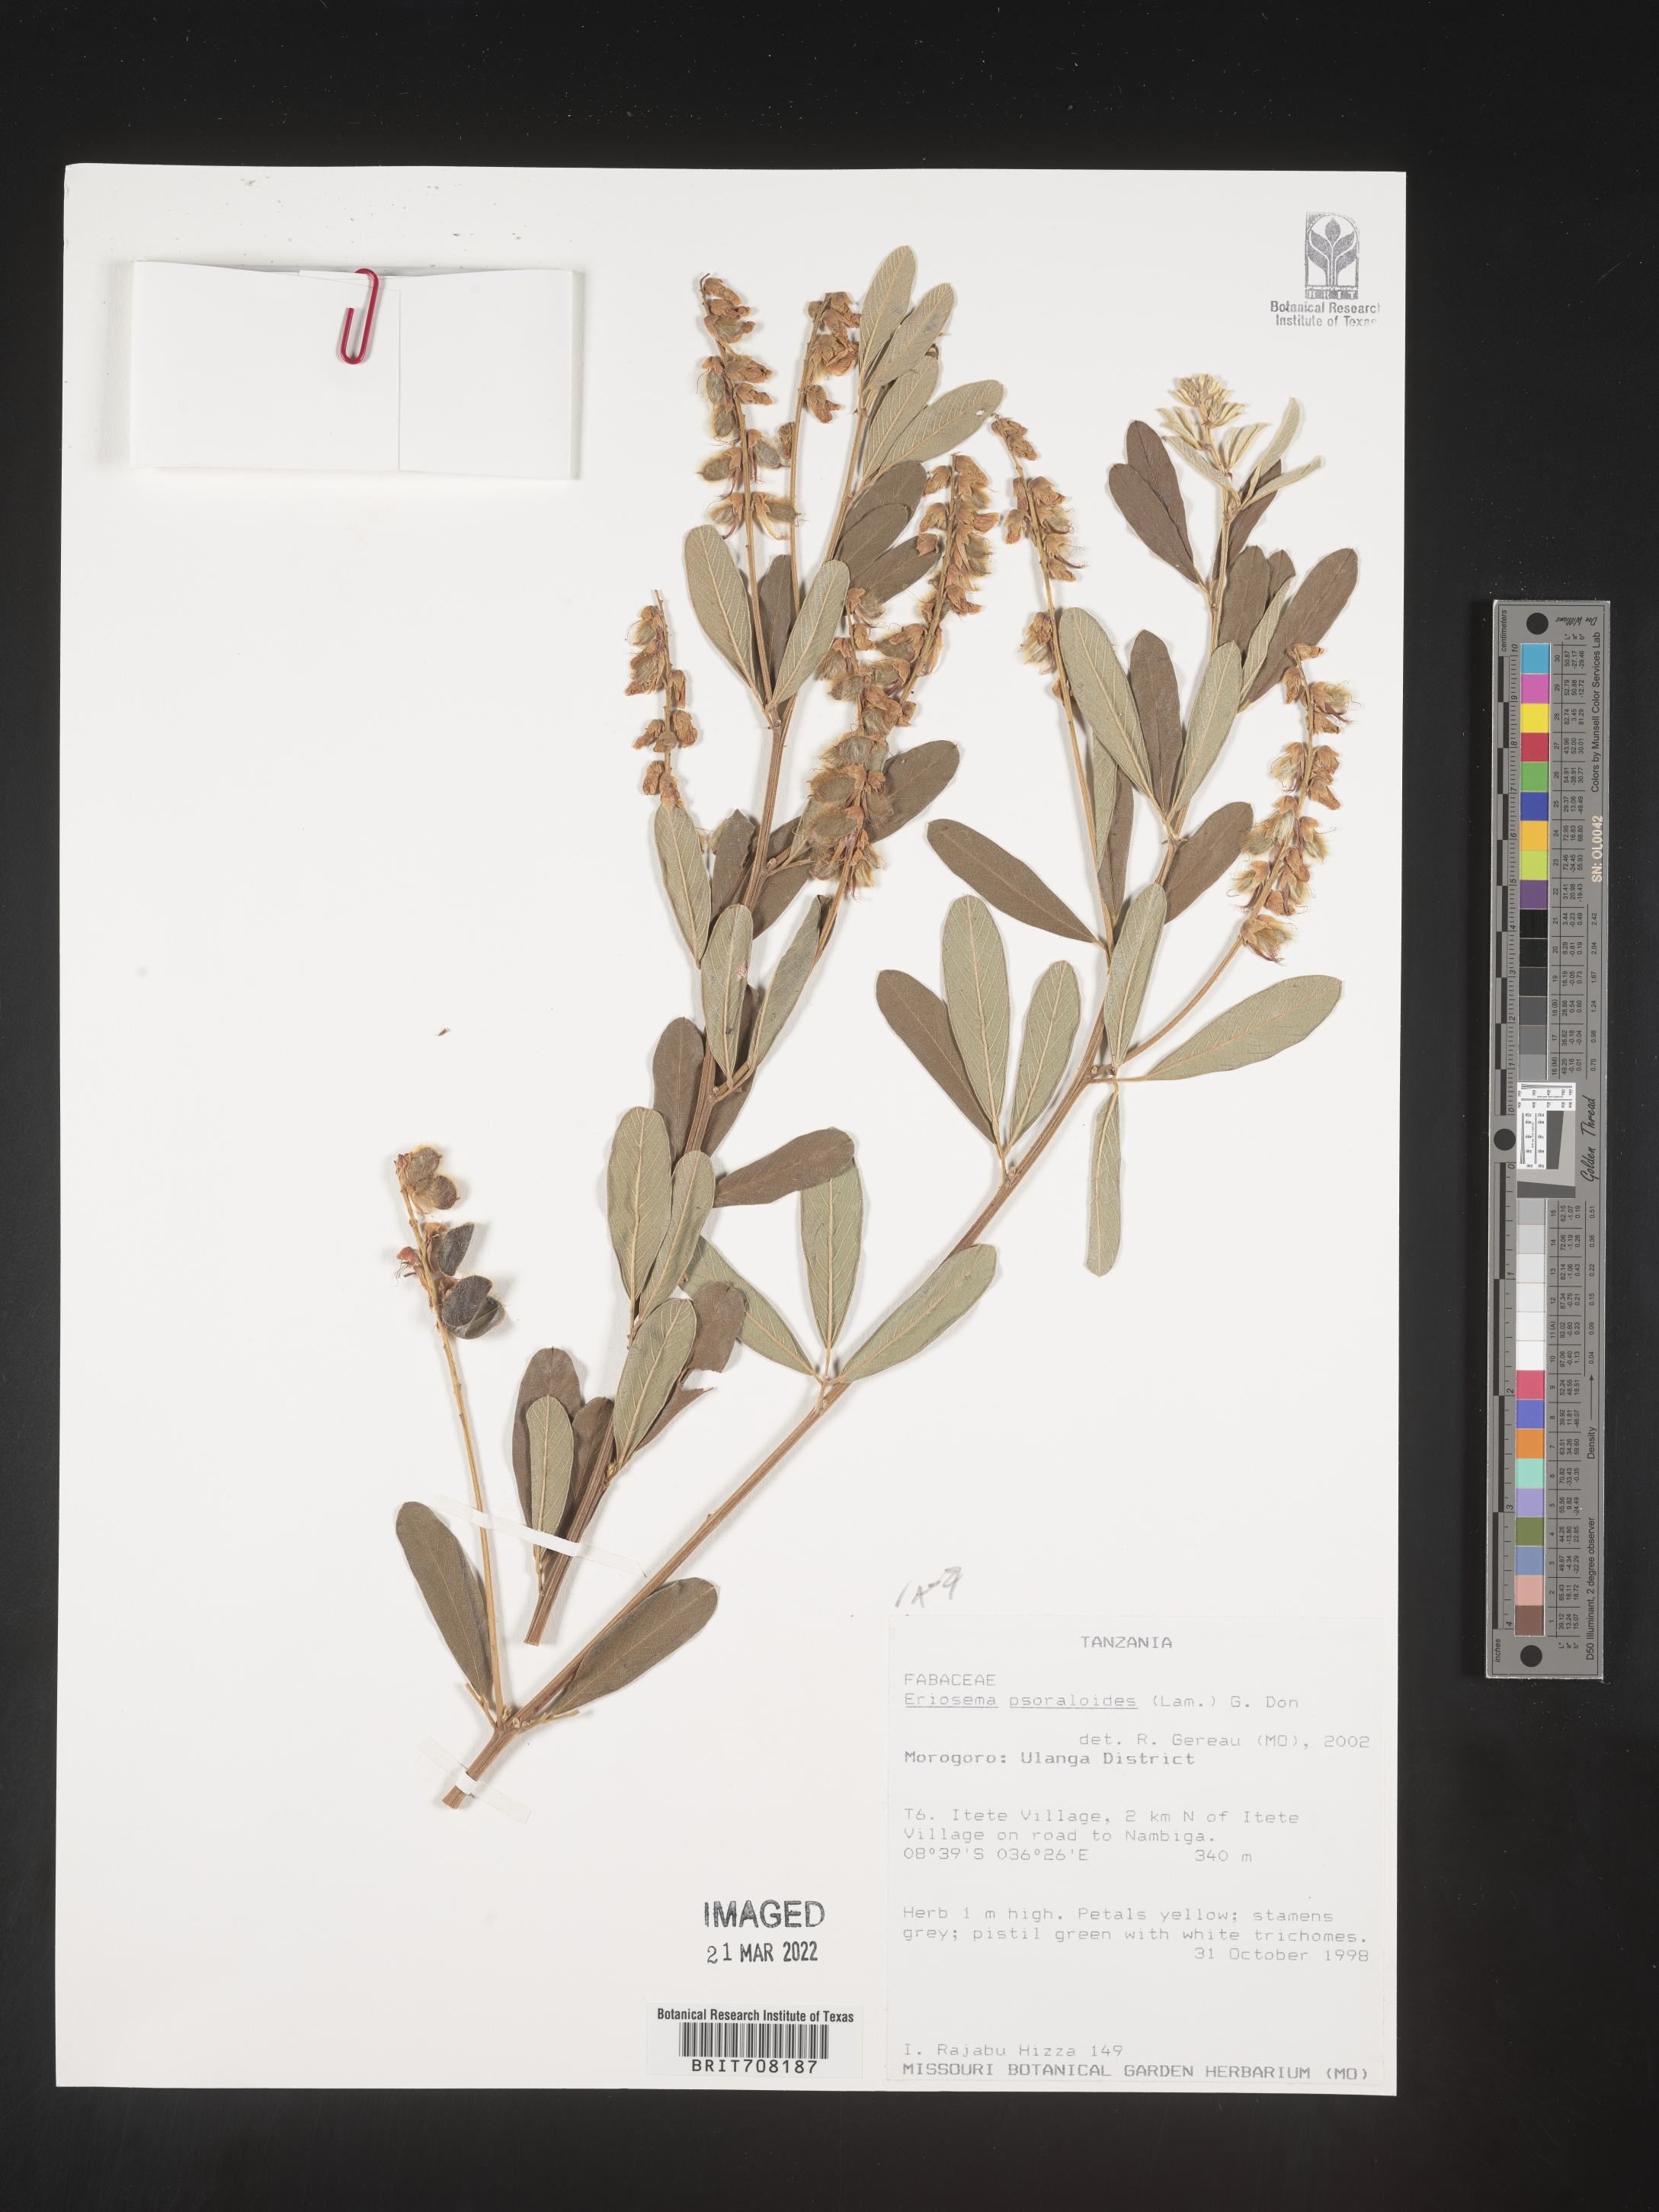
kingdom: Plantae
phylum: Tracheophyta
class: Magnoliopsida
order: Fabales
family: Fabaceae
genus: Eriosema
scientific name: Eriosema
